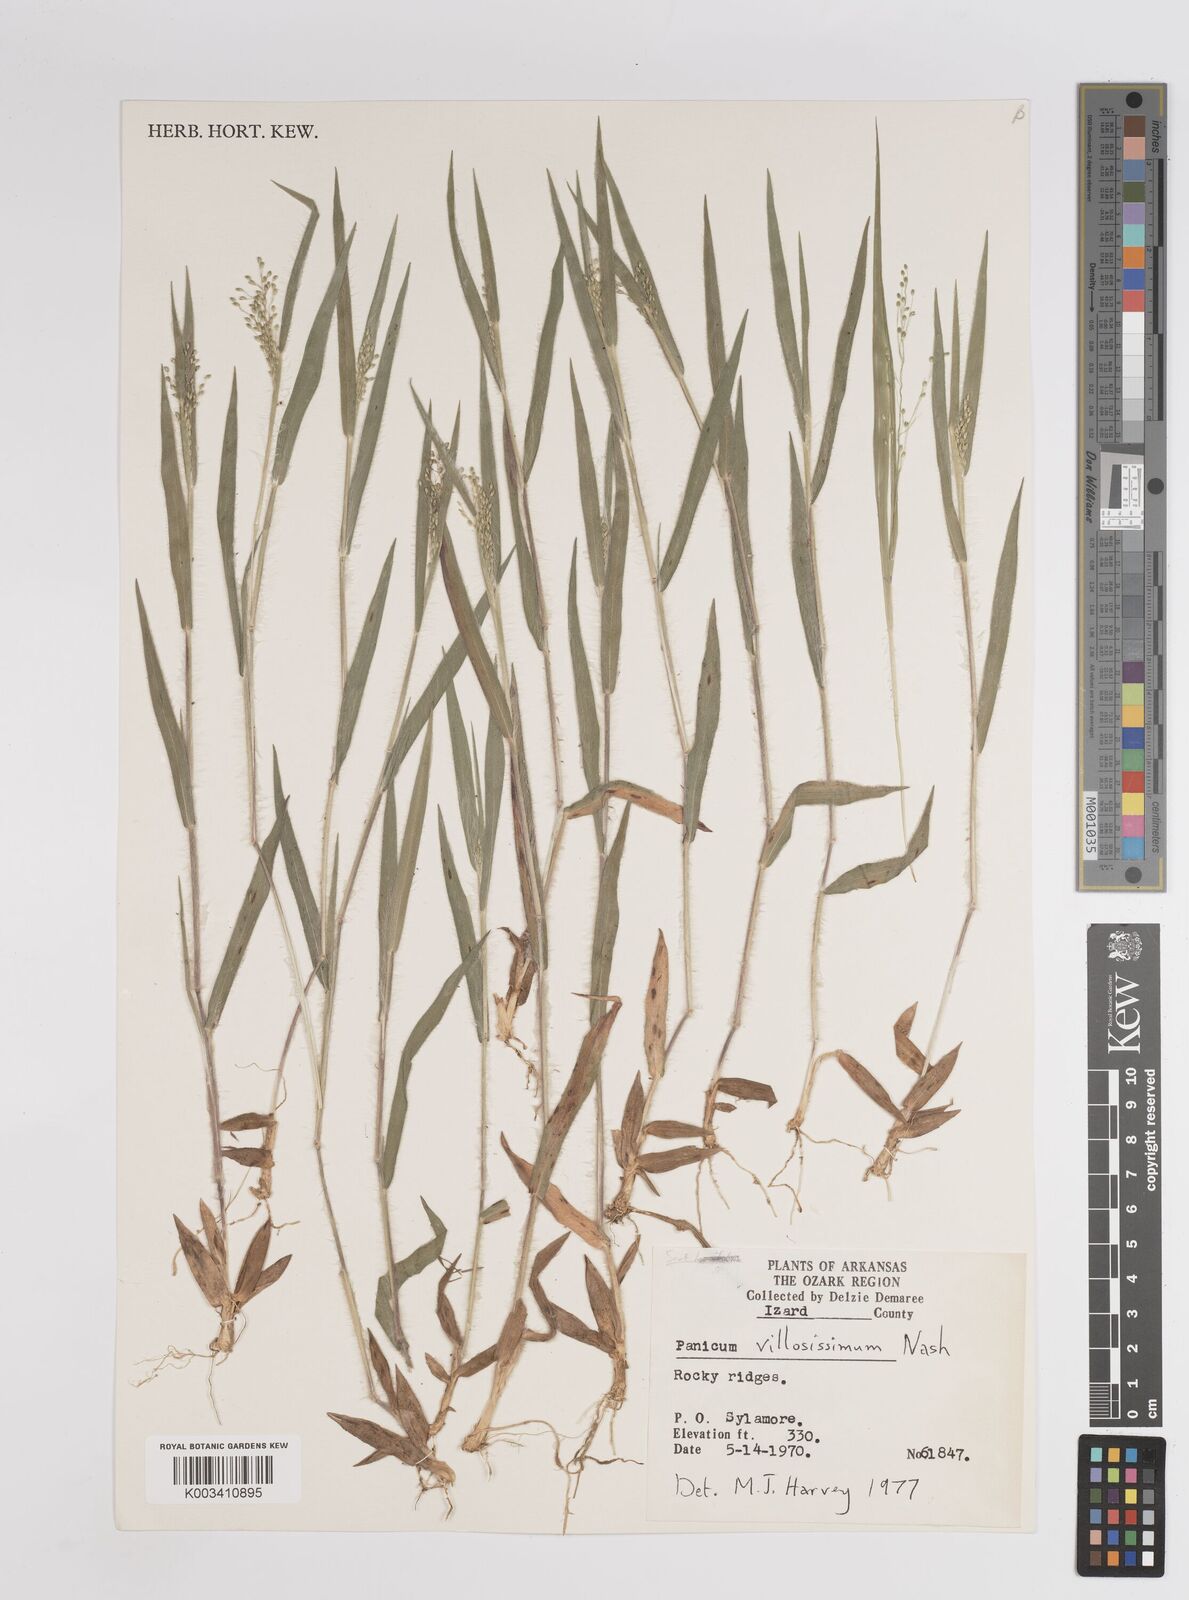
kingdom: Plantae
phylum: Tracheophyta
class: Liliopsida
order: Poales
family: Poaceae
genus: Dichanthelium
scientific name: Dichanthelium villosissimum
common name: White-haired panicgrass
